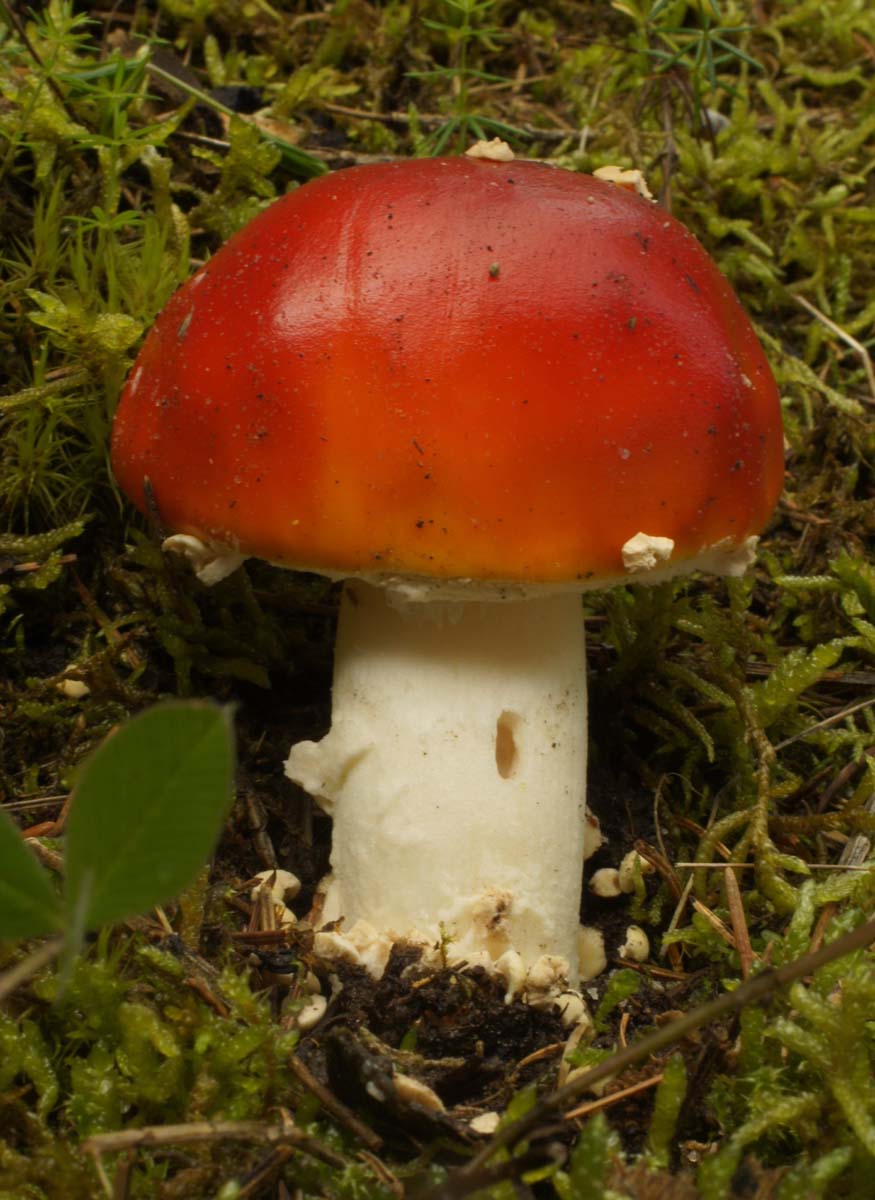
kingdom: Fungi
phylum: Basidiomycota
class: Agaricomycetes
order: Agaricales
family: Amanitaceae
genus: Amanita
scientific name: Amanita muscaria
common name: rød fluesvamp
